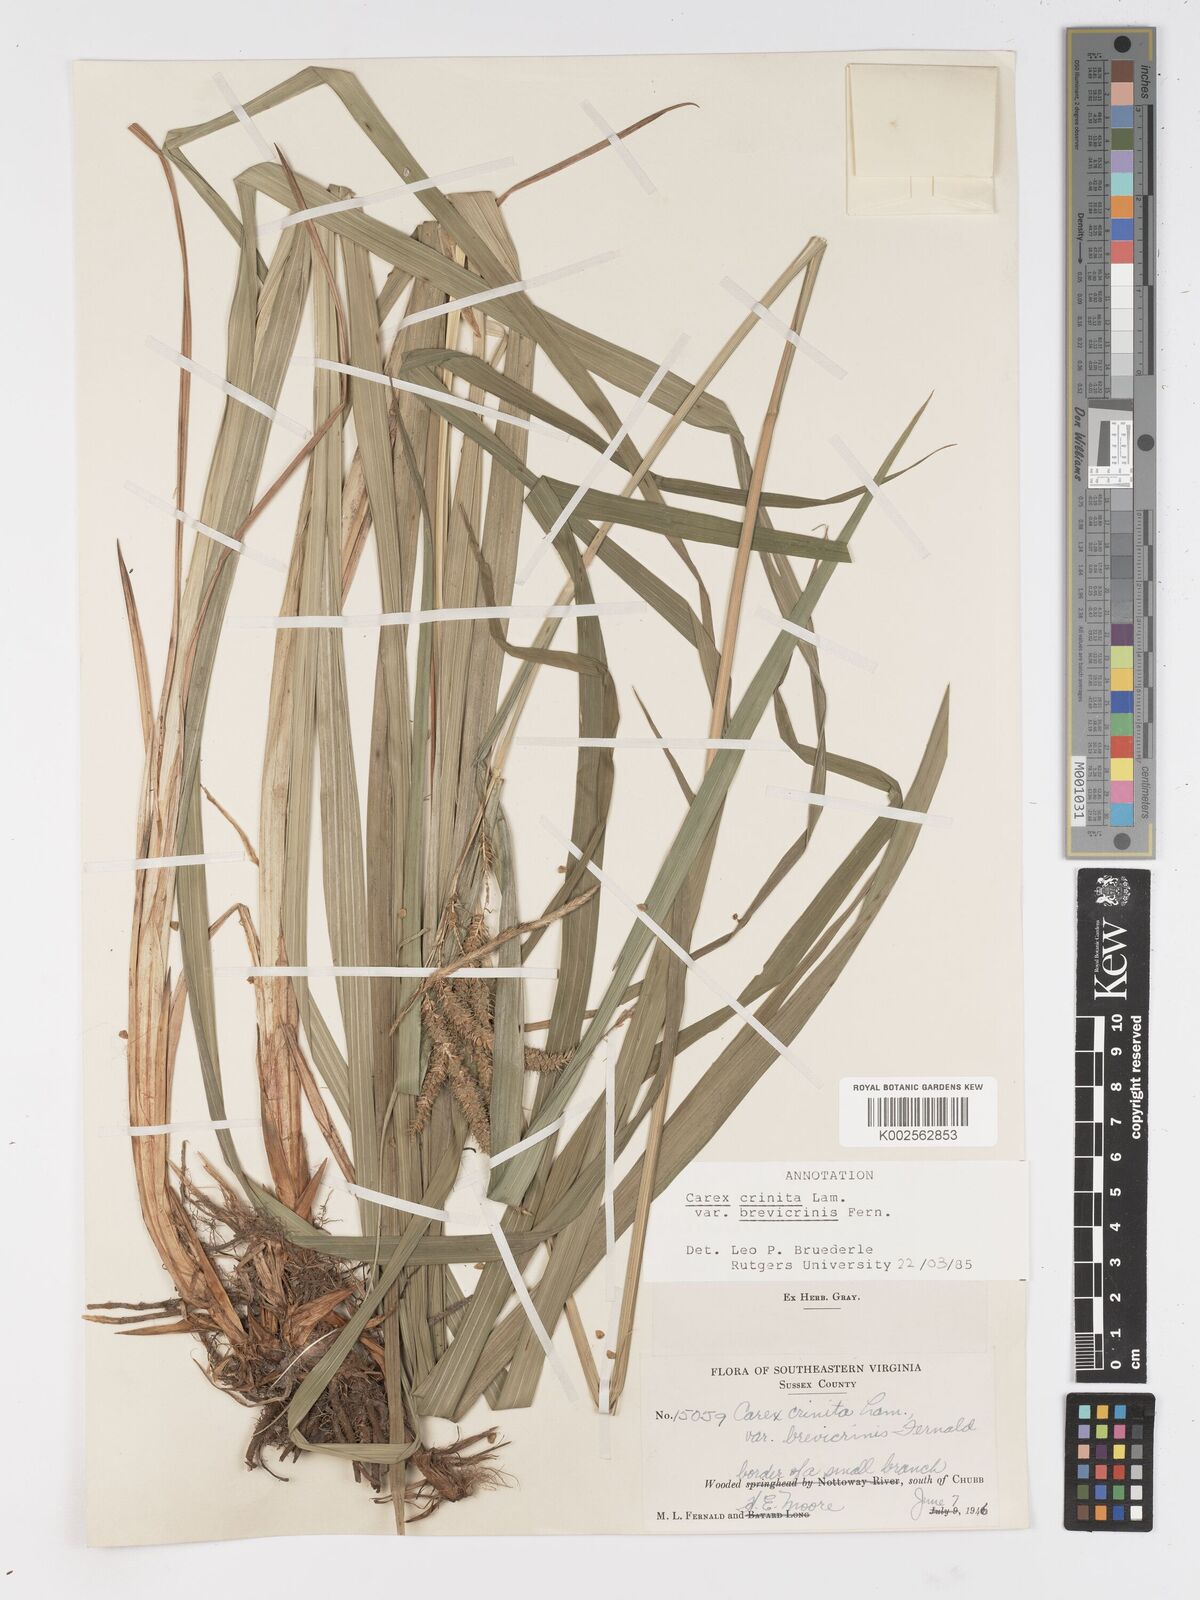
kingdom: Plantae
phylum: Tracheophyta
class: Liliopsida
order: Poales
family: Cyperaceae
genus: Carex
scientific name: Carex crinita
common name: Fringed sedge
